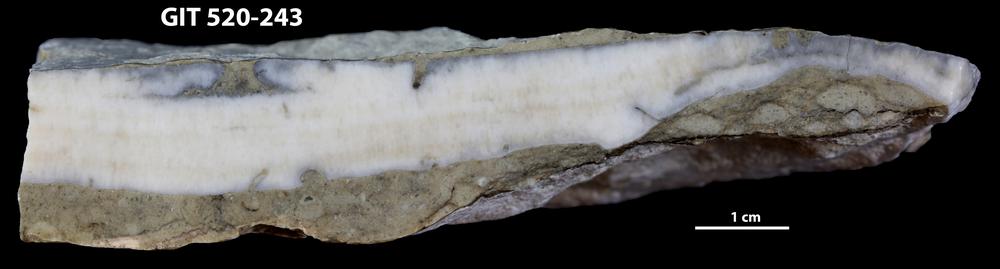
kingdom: Animalia
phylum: Cnidaria
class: Anthozoa
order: Heliolitina
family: Coccoserididae
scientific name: Coccoserididae
